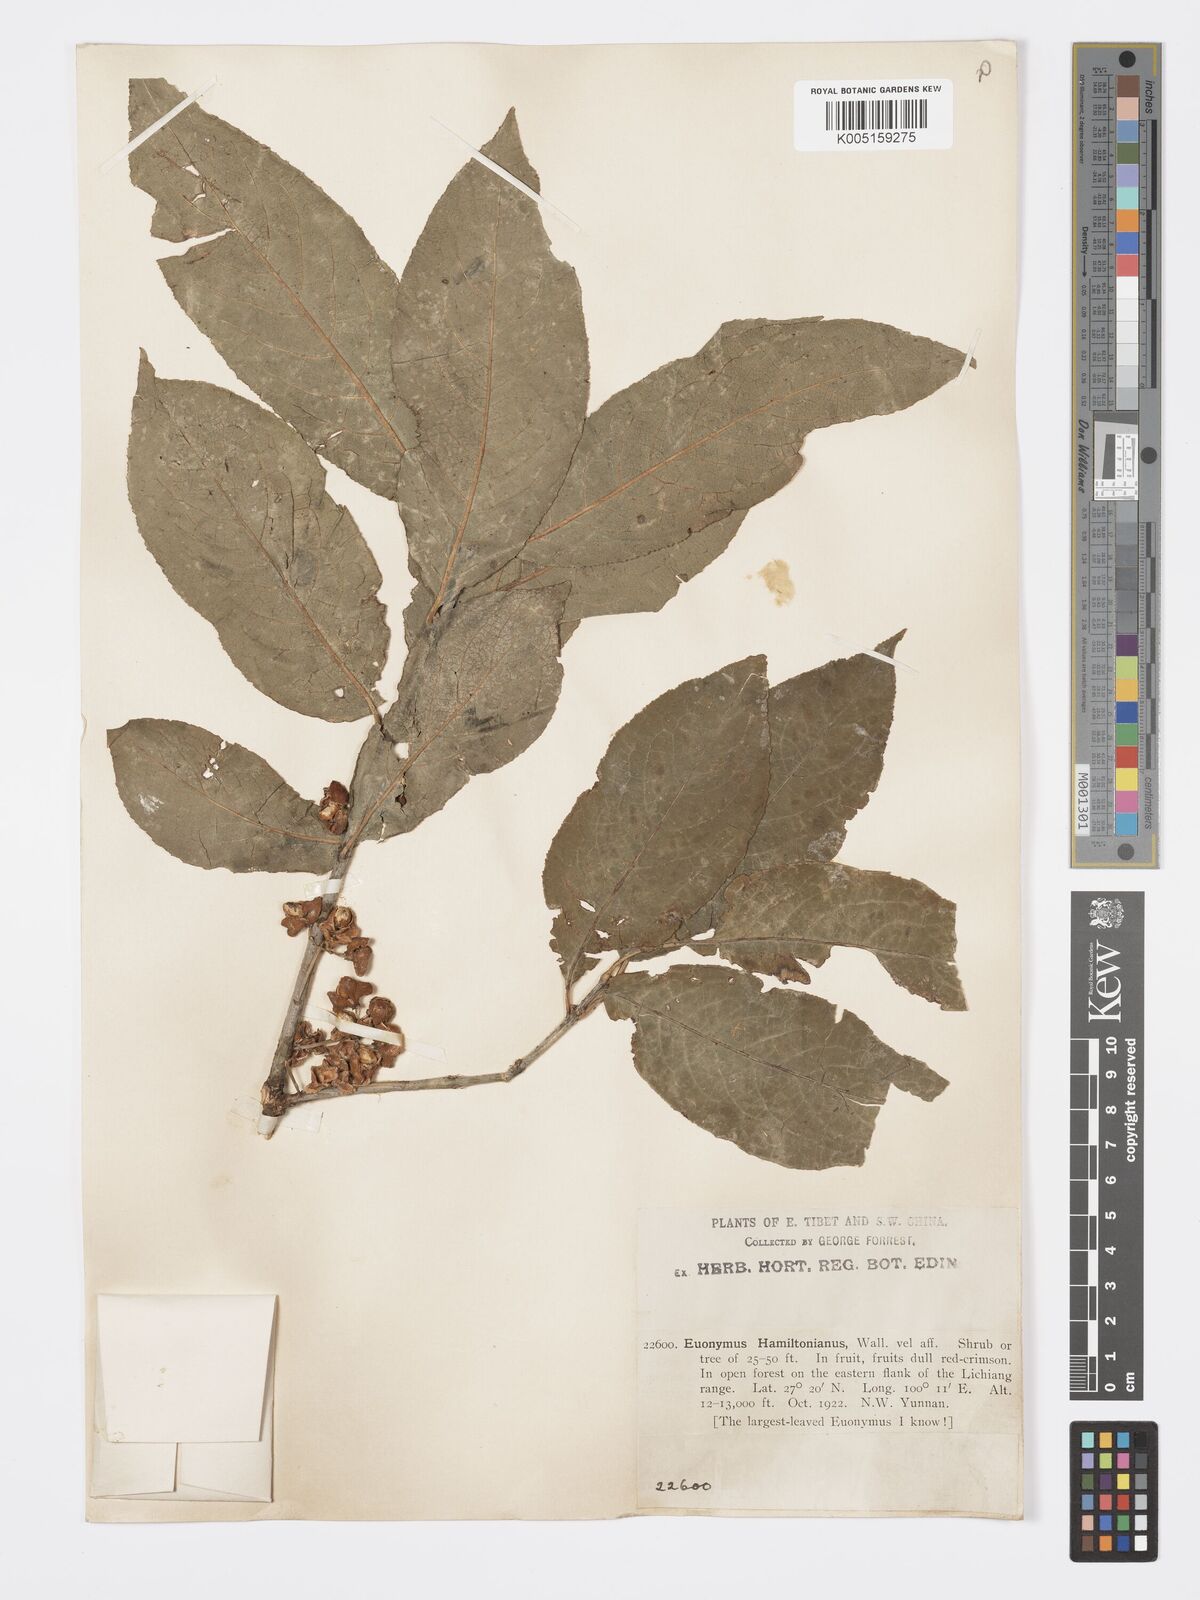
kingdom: Plantae
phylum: Tracheophyta
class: Magnoliopsida
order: Celastrales
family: Celastraceae
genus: Euonymus
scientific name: Euonymus hamiltonianus
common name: Hamilton's spindletree
